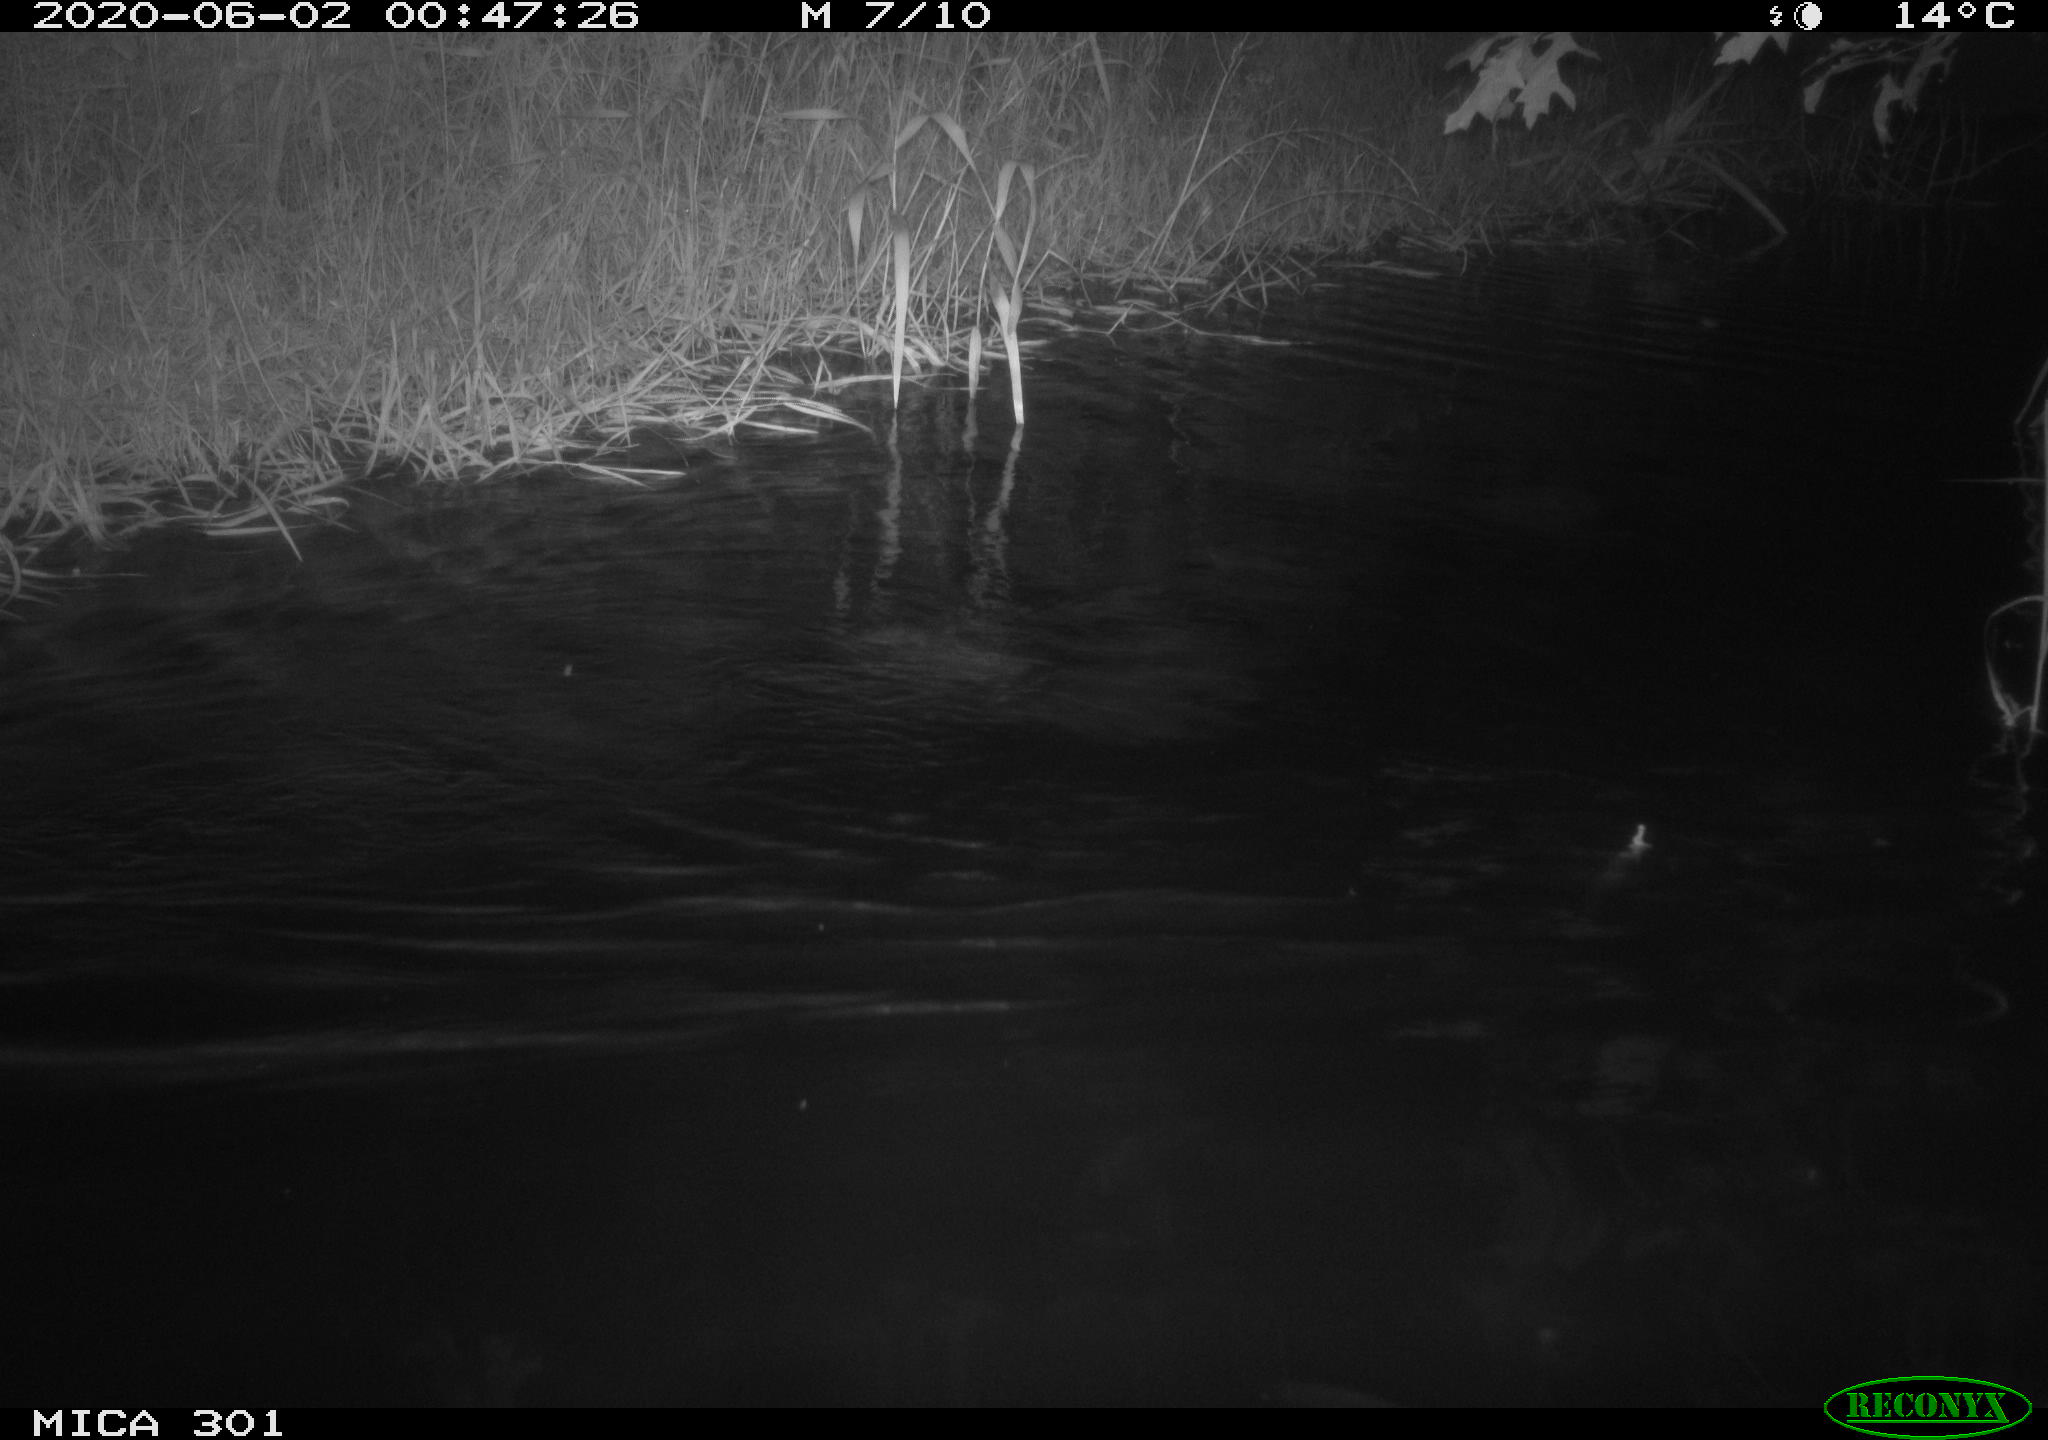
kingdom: Animalia
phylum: Chordata
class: Mammalia
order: Rodentia
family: Castoridae
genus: Castor
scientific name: Castor fiber
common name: Eurasian beaver
